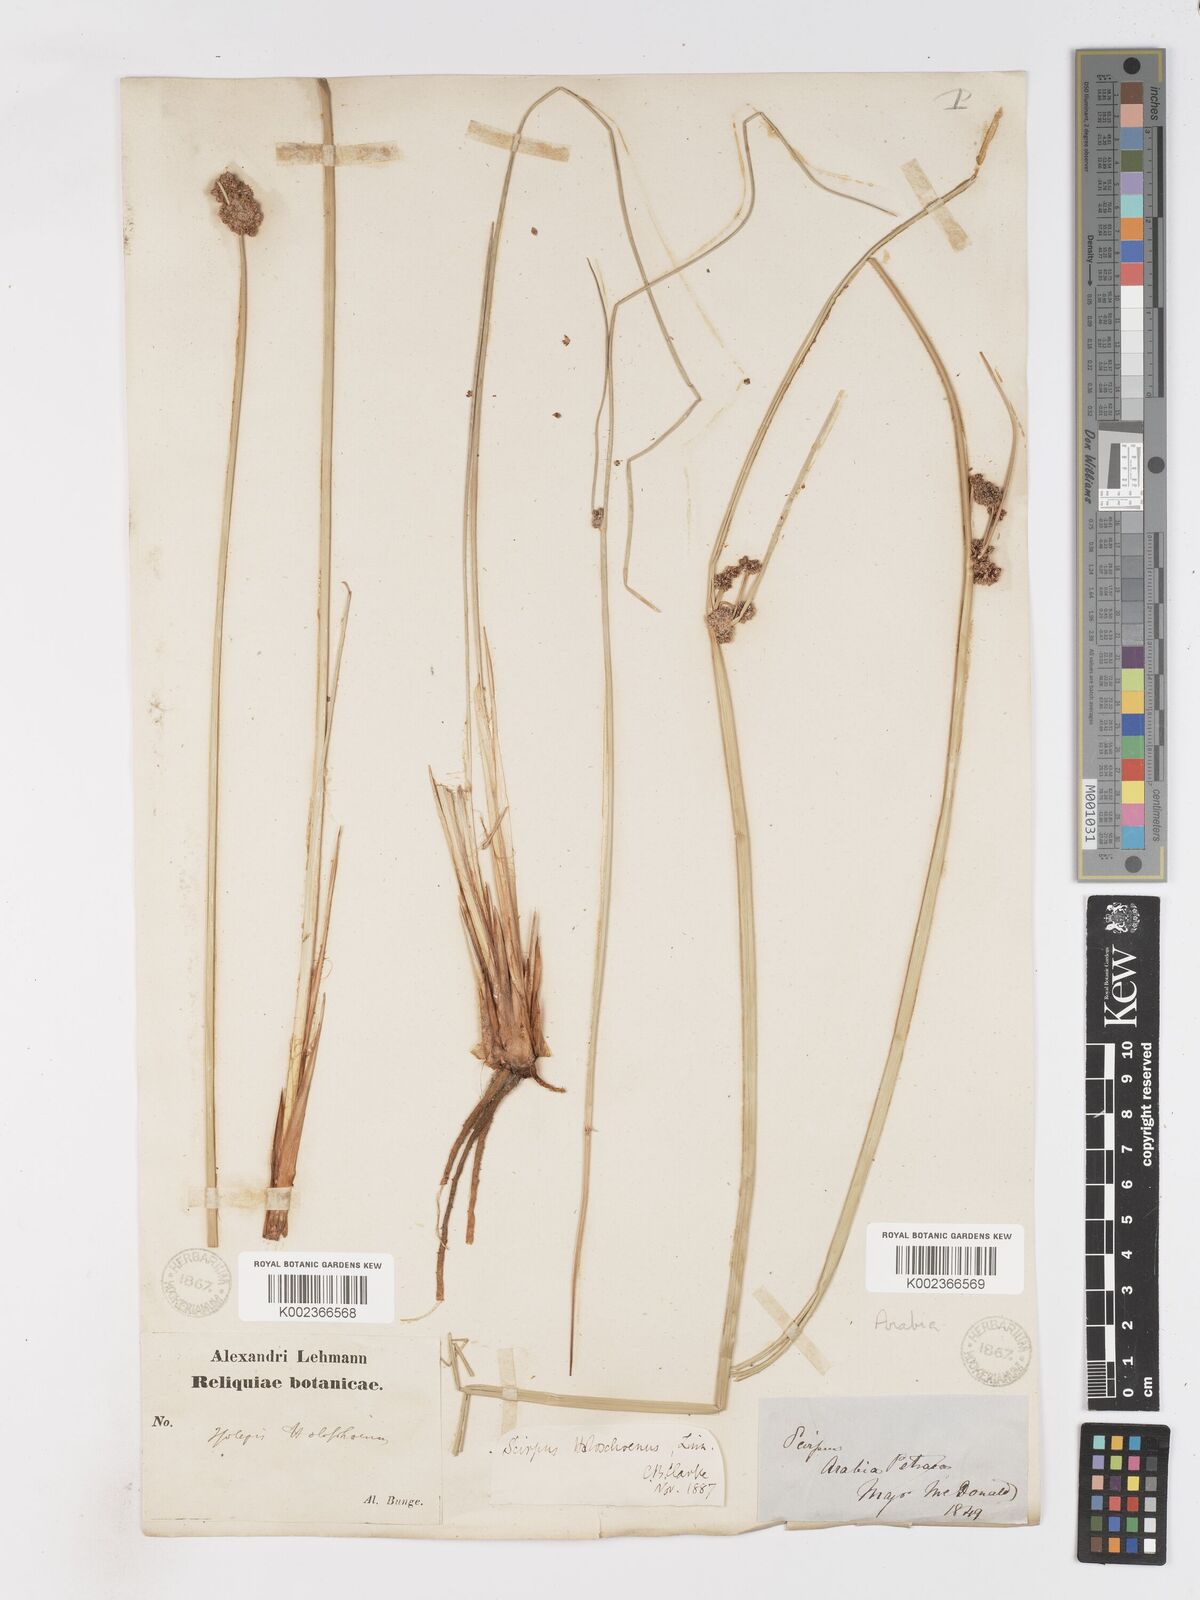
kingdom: Plantae
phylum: Tracheophyta
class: Liliopsida
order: Poales
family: Cyperaceae
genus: Scirpoides
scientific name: Scirpoides holoschoenus
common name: Round-headed club-rush
